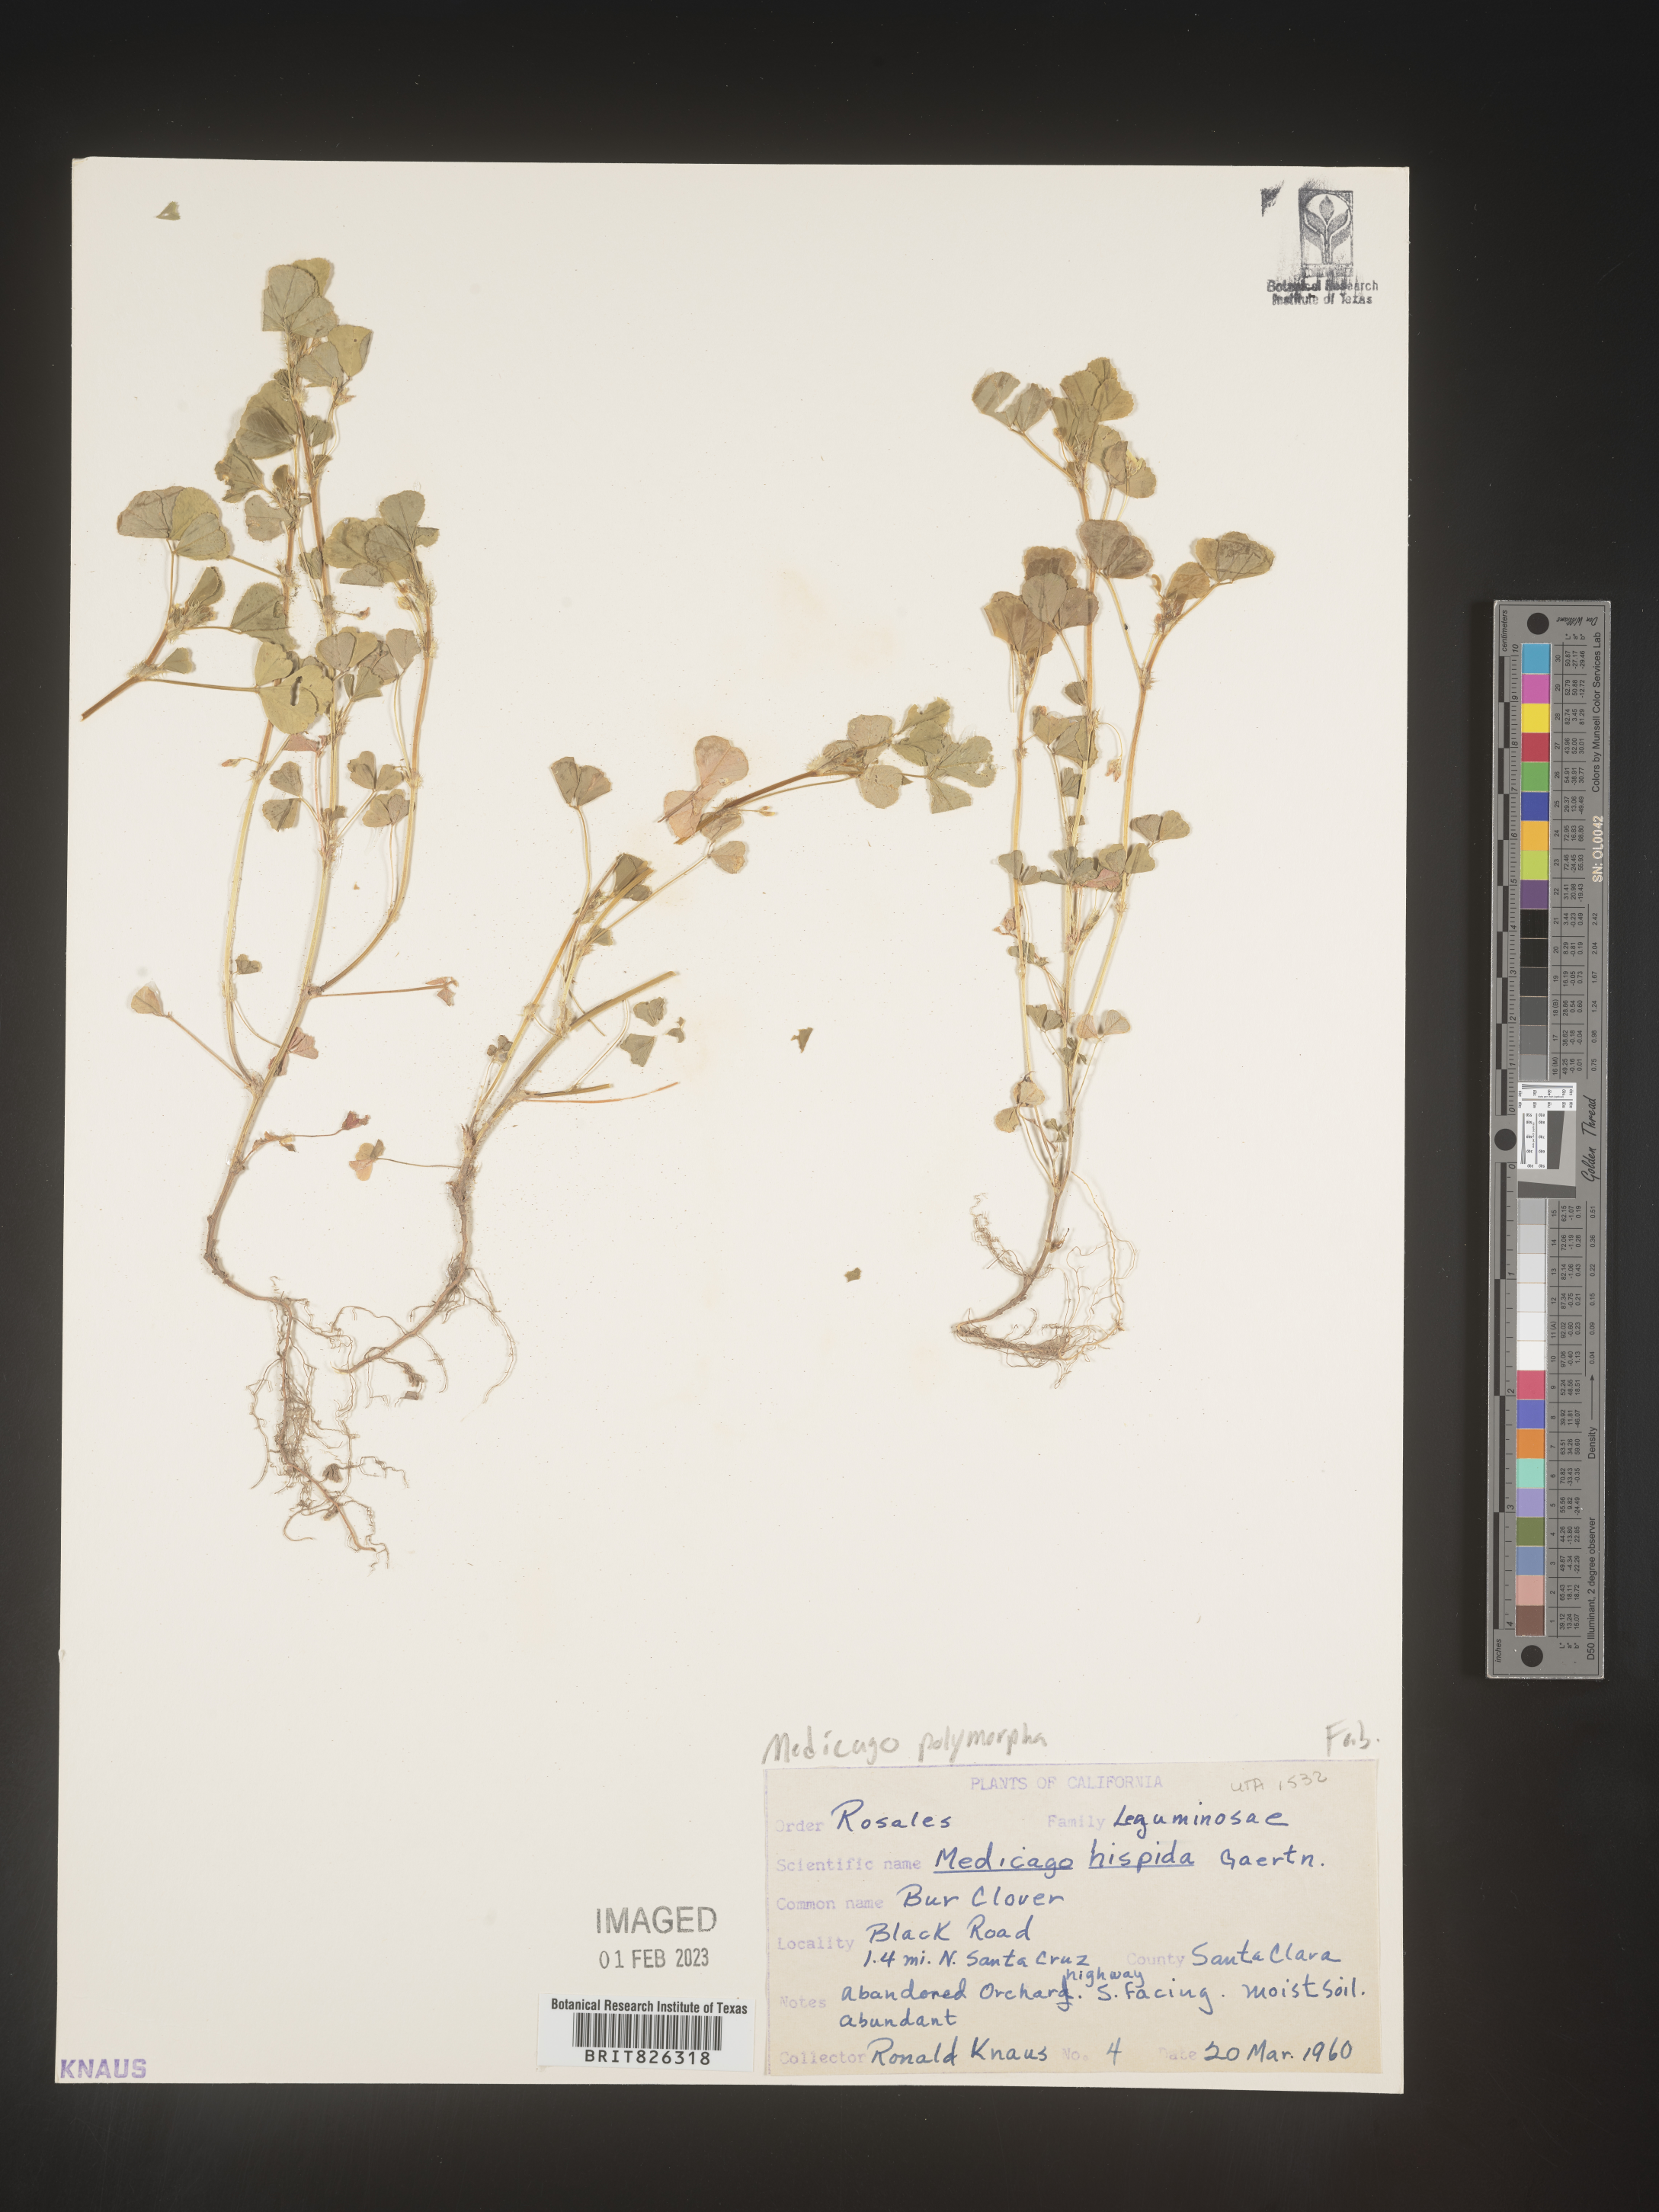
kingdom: Plantae
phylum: Tracheophyta
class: Magnoliopsida
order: Fabales
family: Fabaceae
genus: Medicago
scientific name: Medicago polymorpha
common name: Burclover
